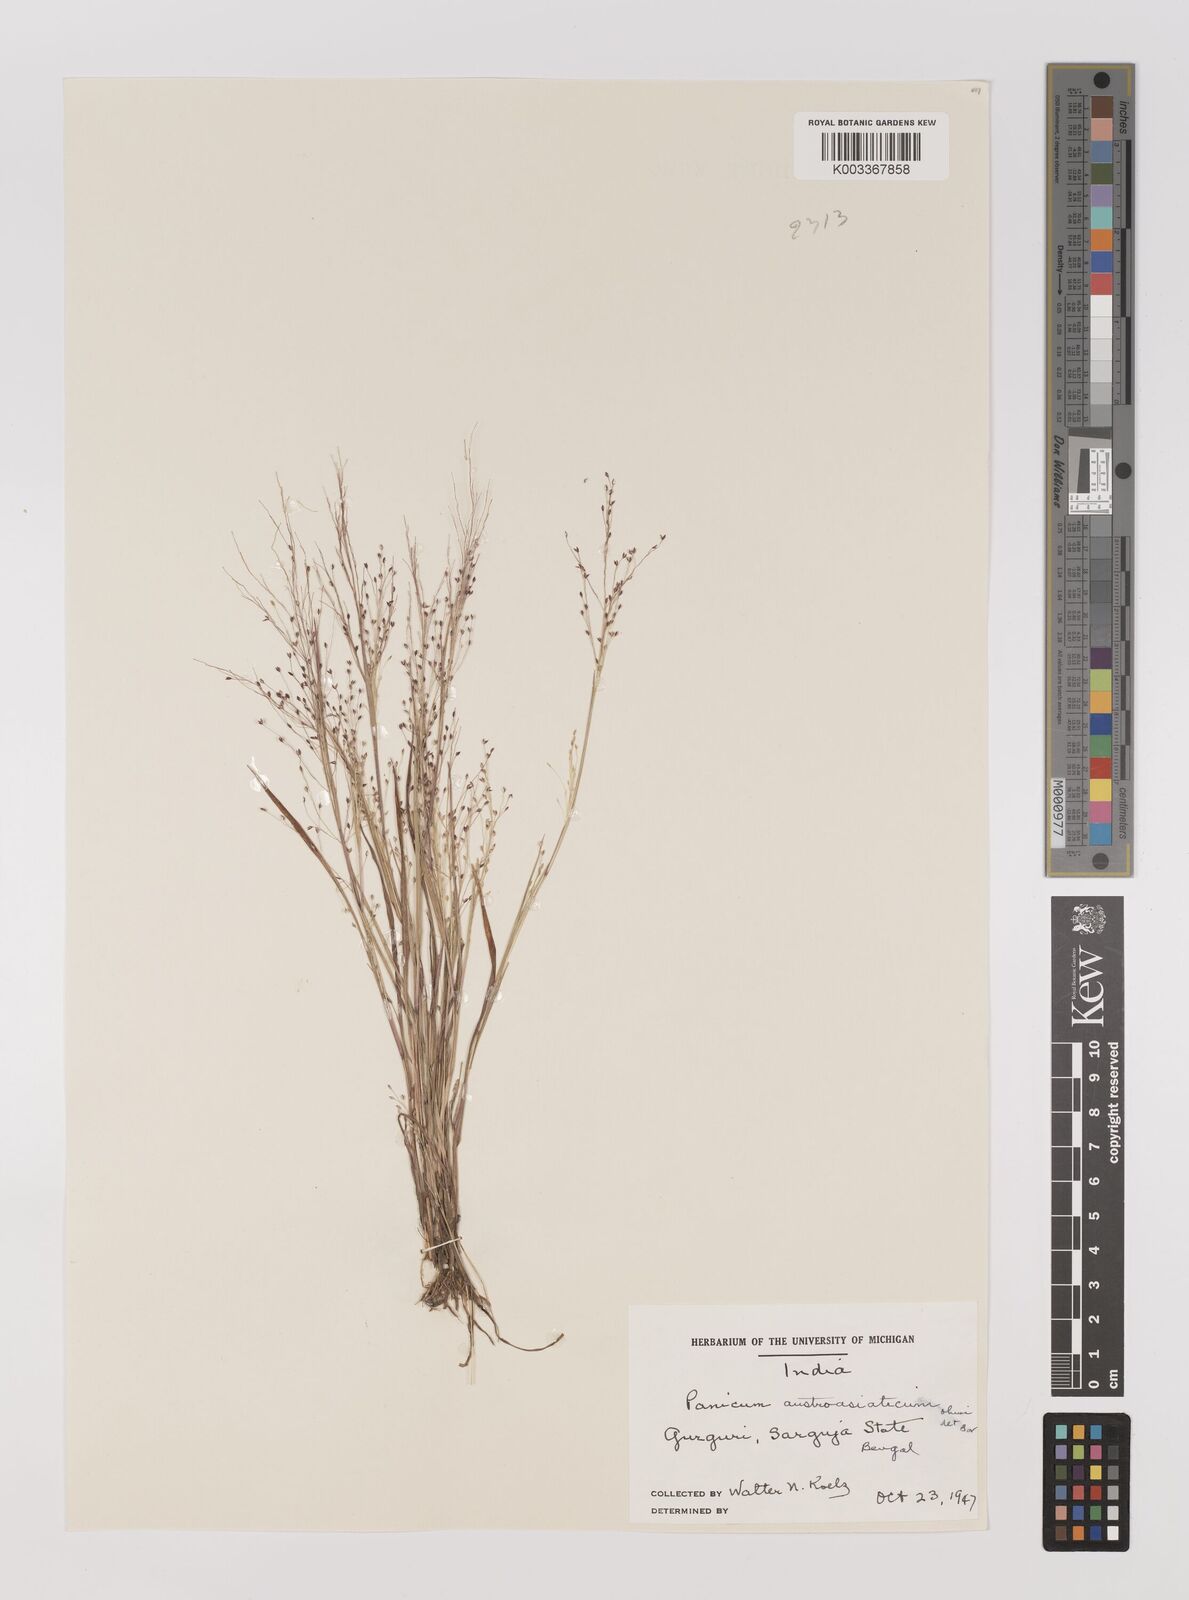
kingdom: Plantae
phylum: Tracheophyta
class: Liliopsida
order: Poales
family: Poaceae
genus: Panicum
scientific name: Panicum humile
